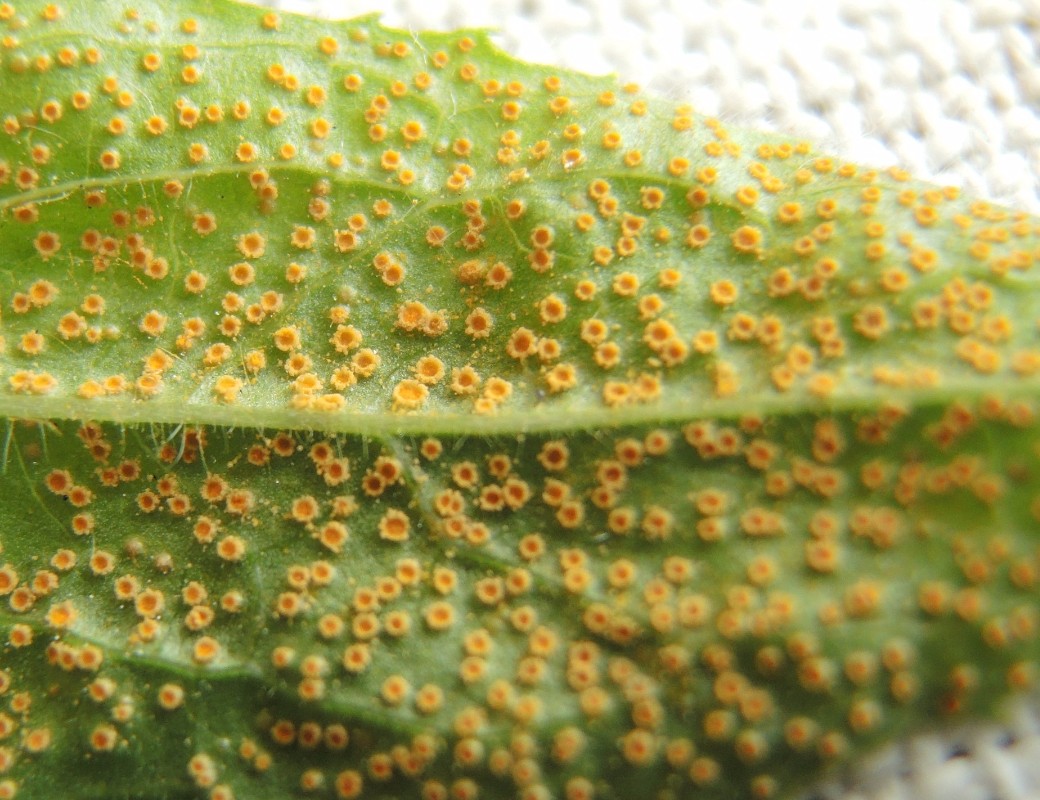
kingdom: Fungi
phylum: Basidiomycota
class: Pucciniomycetes
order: Pucciniales
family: Pucciniaceae
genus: Puccinia
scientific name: Puccinia pulverulenta
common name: dueurt-tvecellerust
